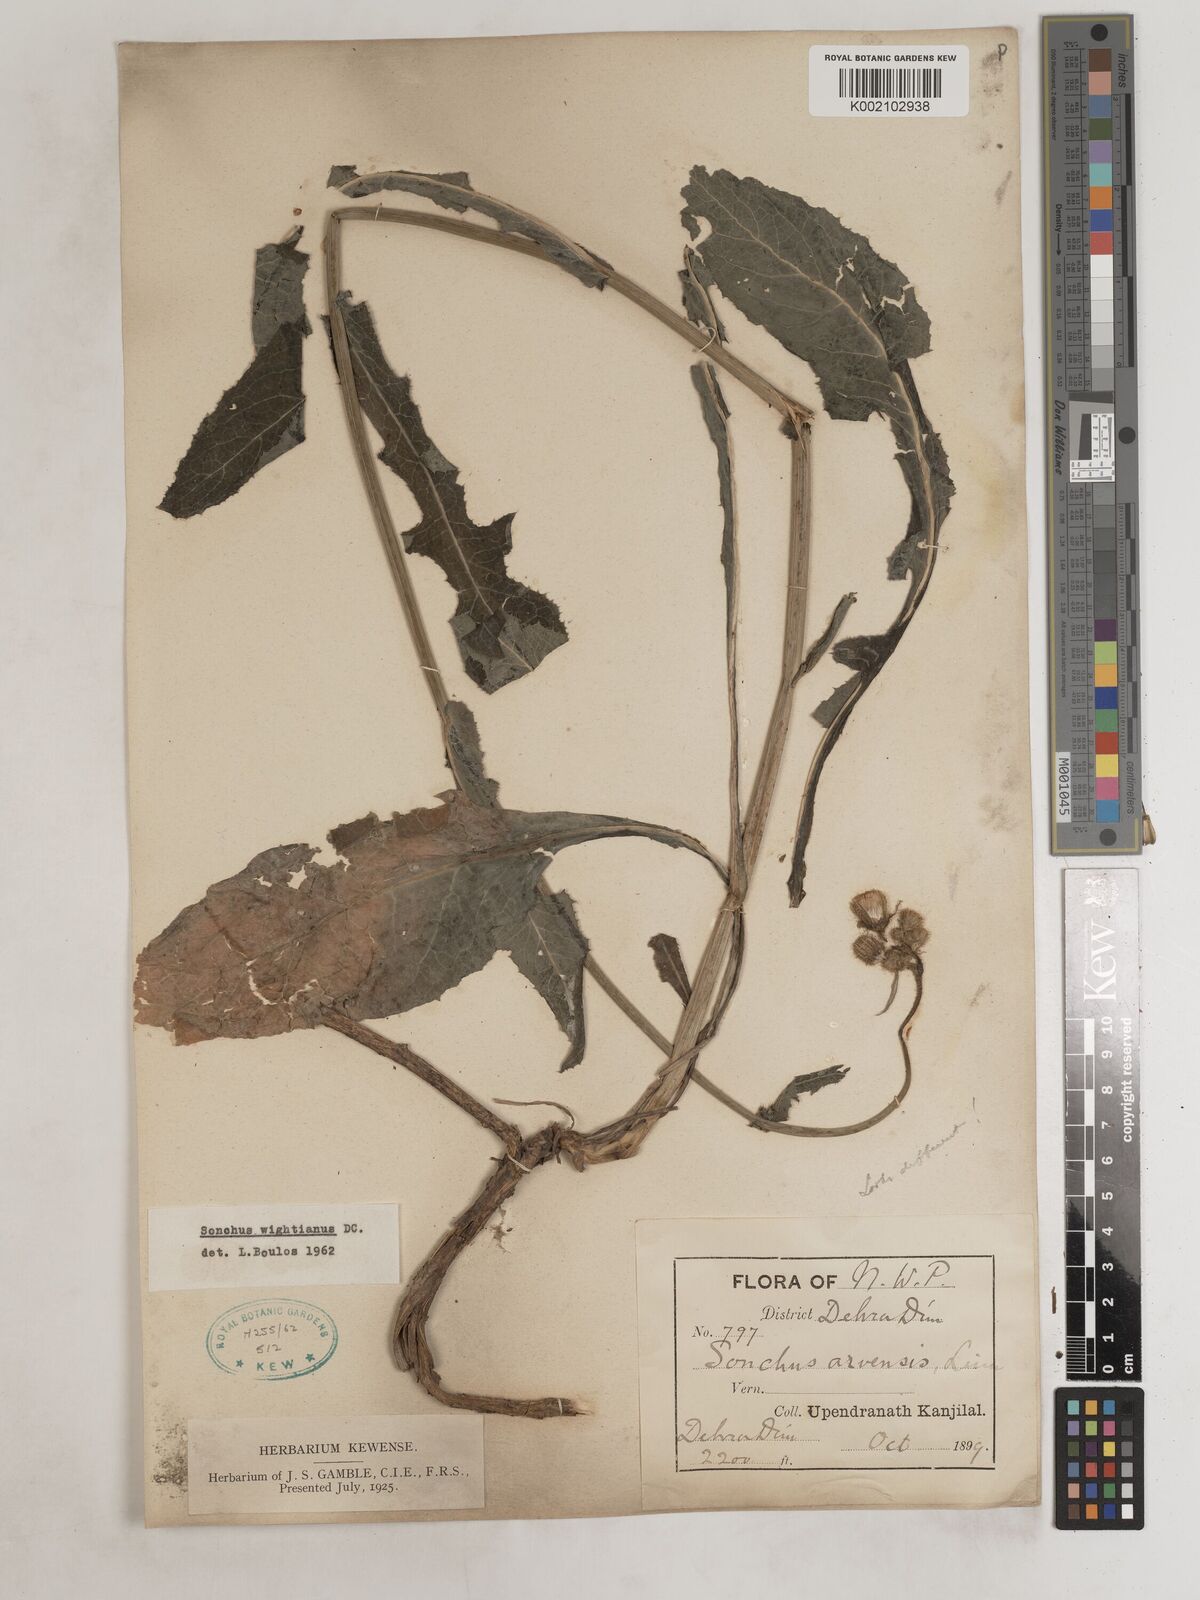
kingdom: Plantae
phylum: Tracheophyta
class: Magnoliopsida
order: Asterales
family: Asteraceae
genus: Sonchus
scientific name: Sonchus arvensis
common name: Perennial sow-thistle
